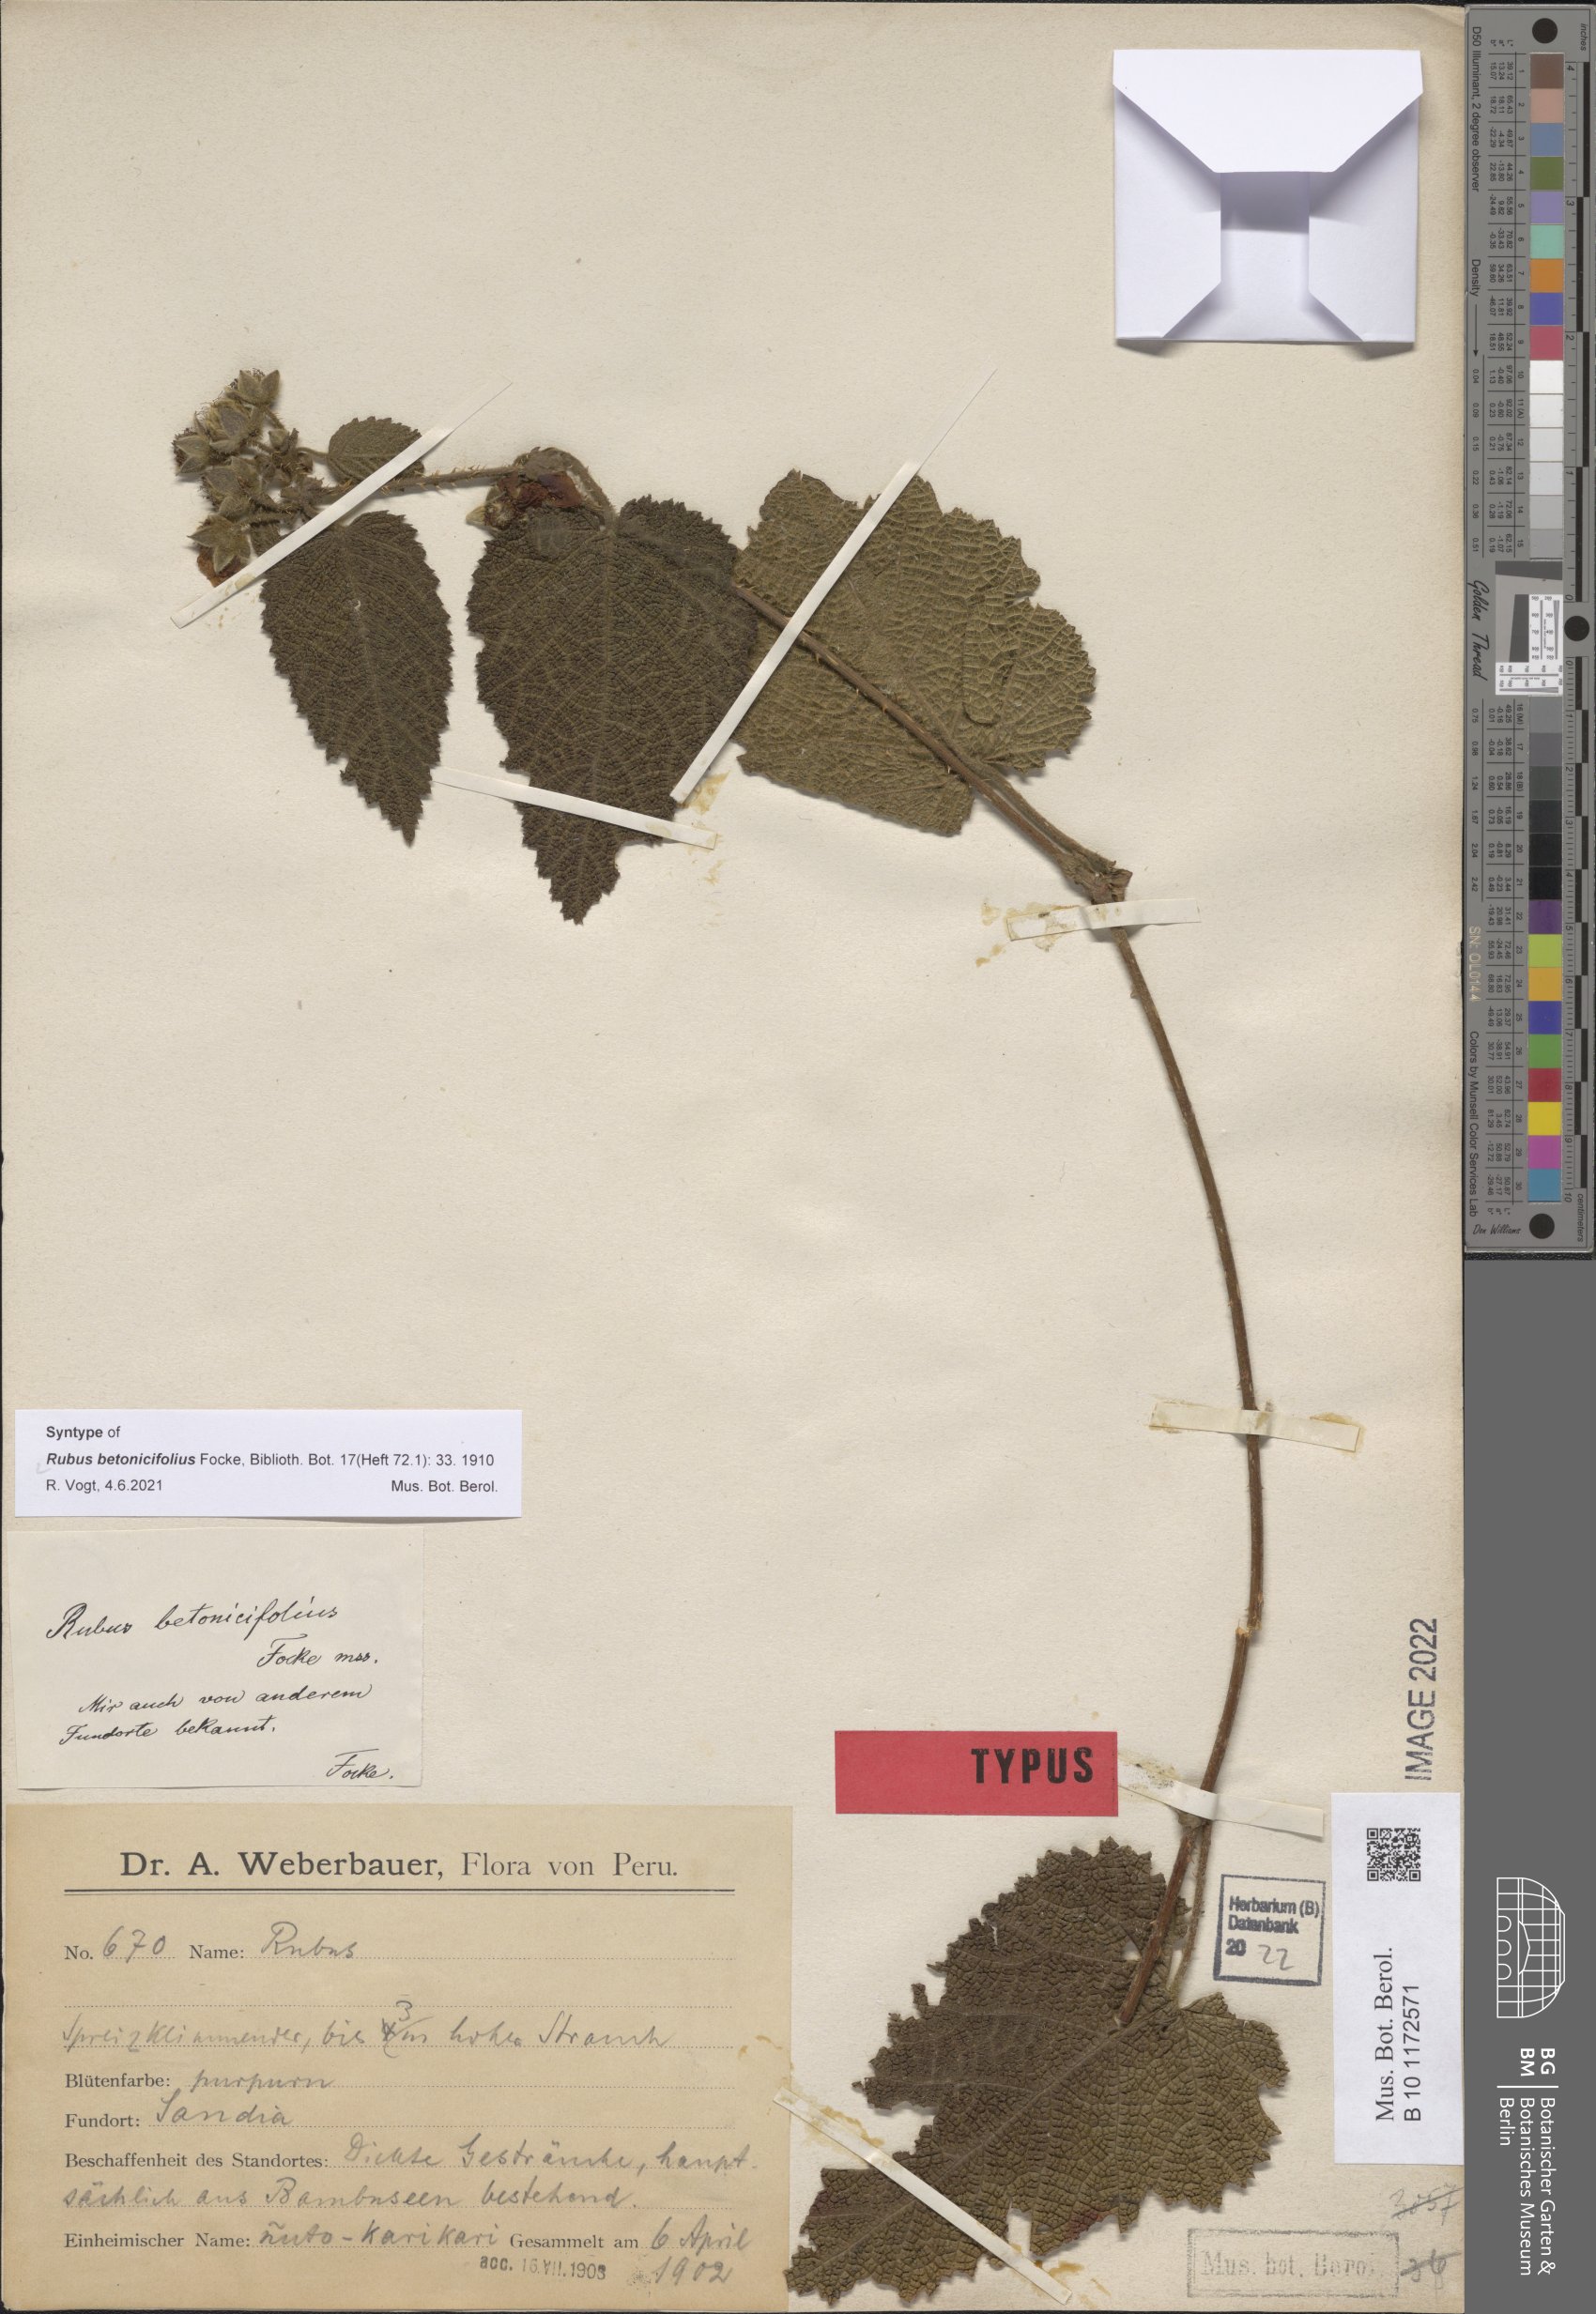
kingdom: Plantae
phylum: Tracheophyta
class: Magnoliopsida
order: Rosales
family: Rosaceae
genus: Rubus
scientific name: Rubus betonicifolius
